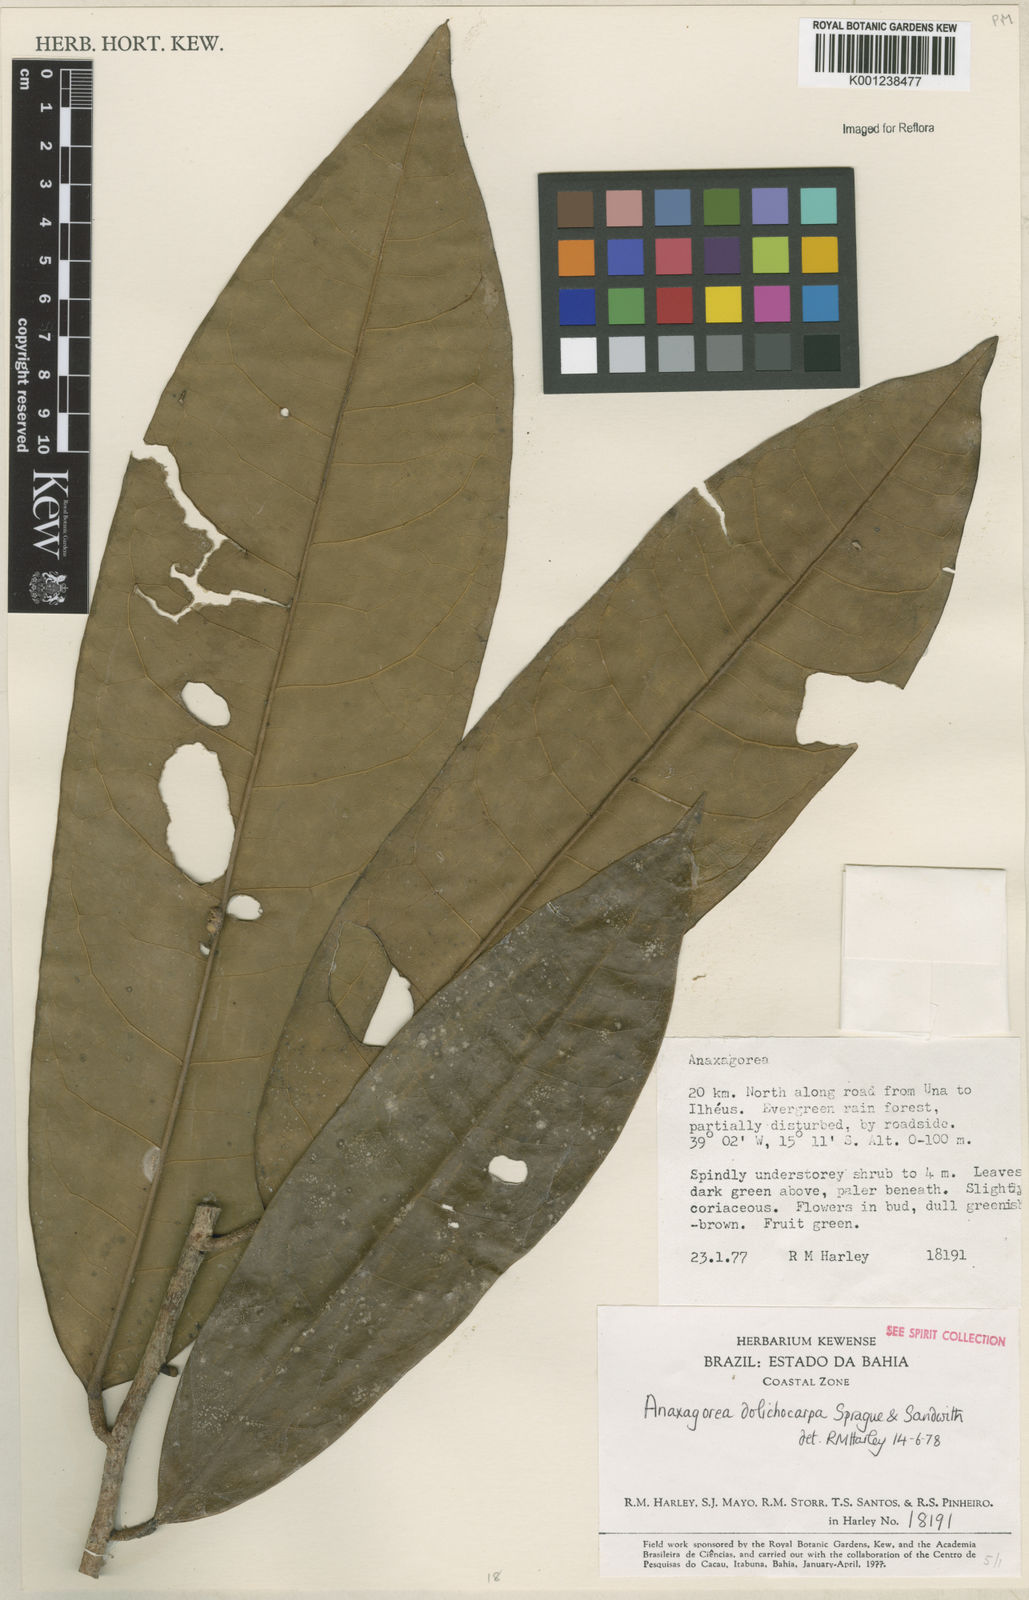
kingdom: Plantae
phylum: Tracheophyta
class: Magnoliopsida
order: Magnoliales
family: Annonaceae
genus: Anaxagorea
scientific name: Anaxagorea dolichocarpa
